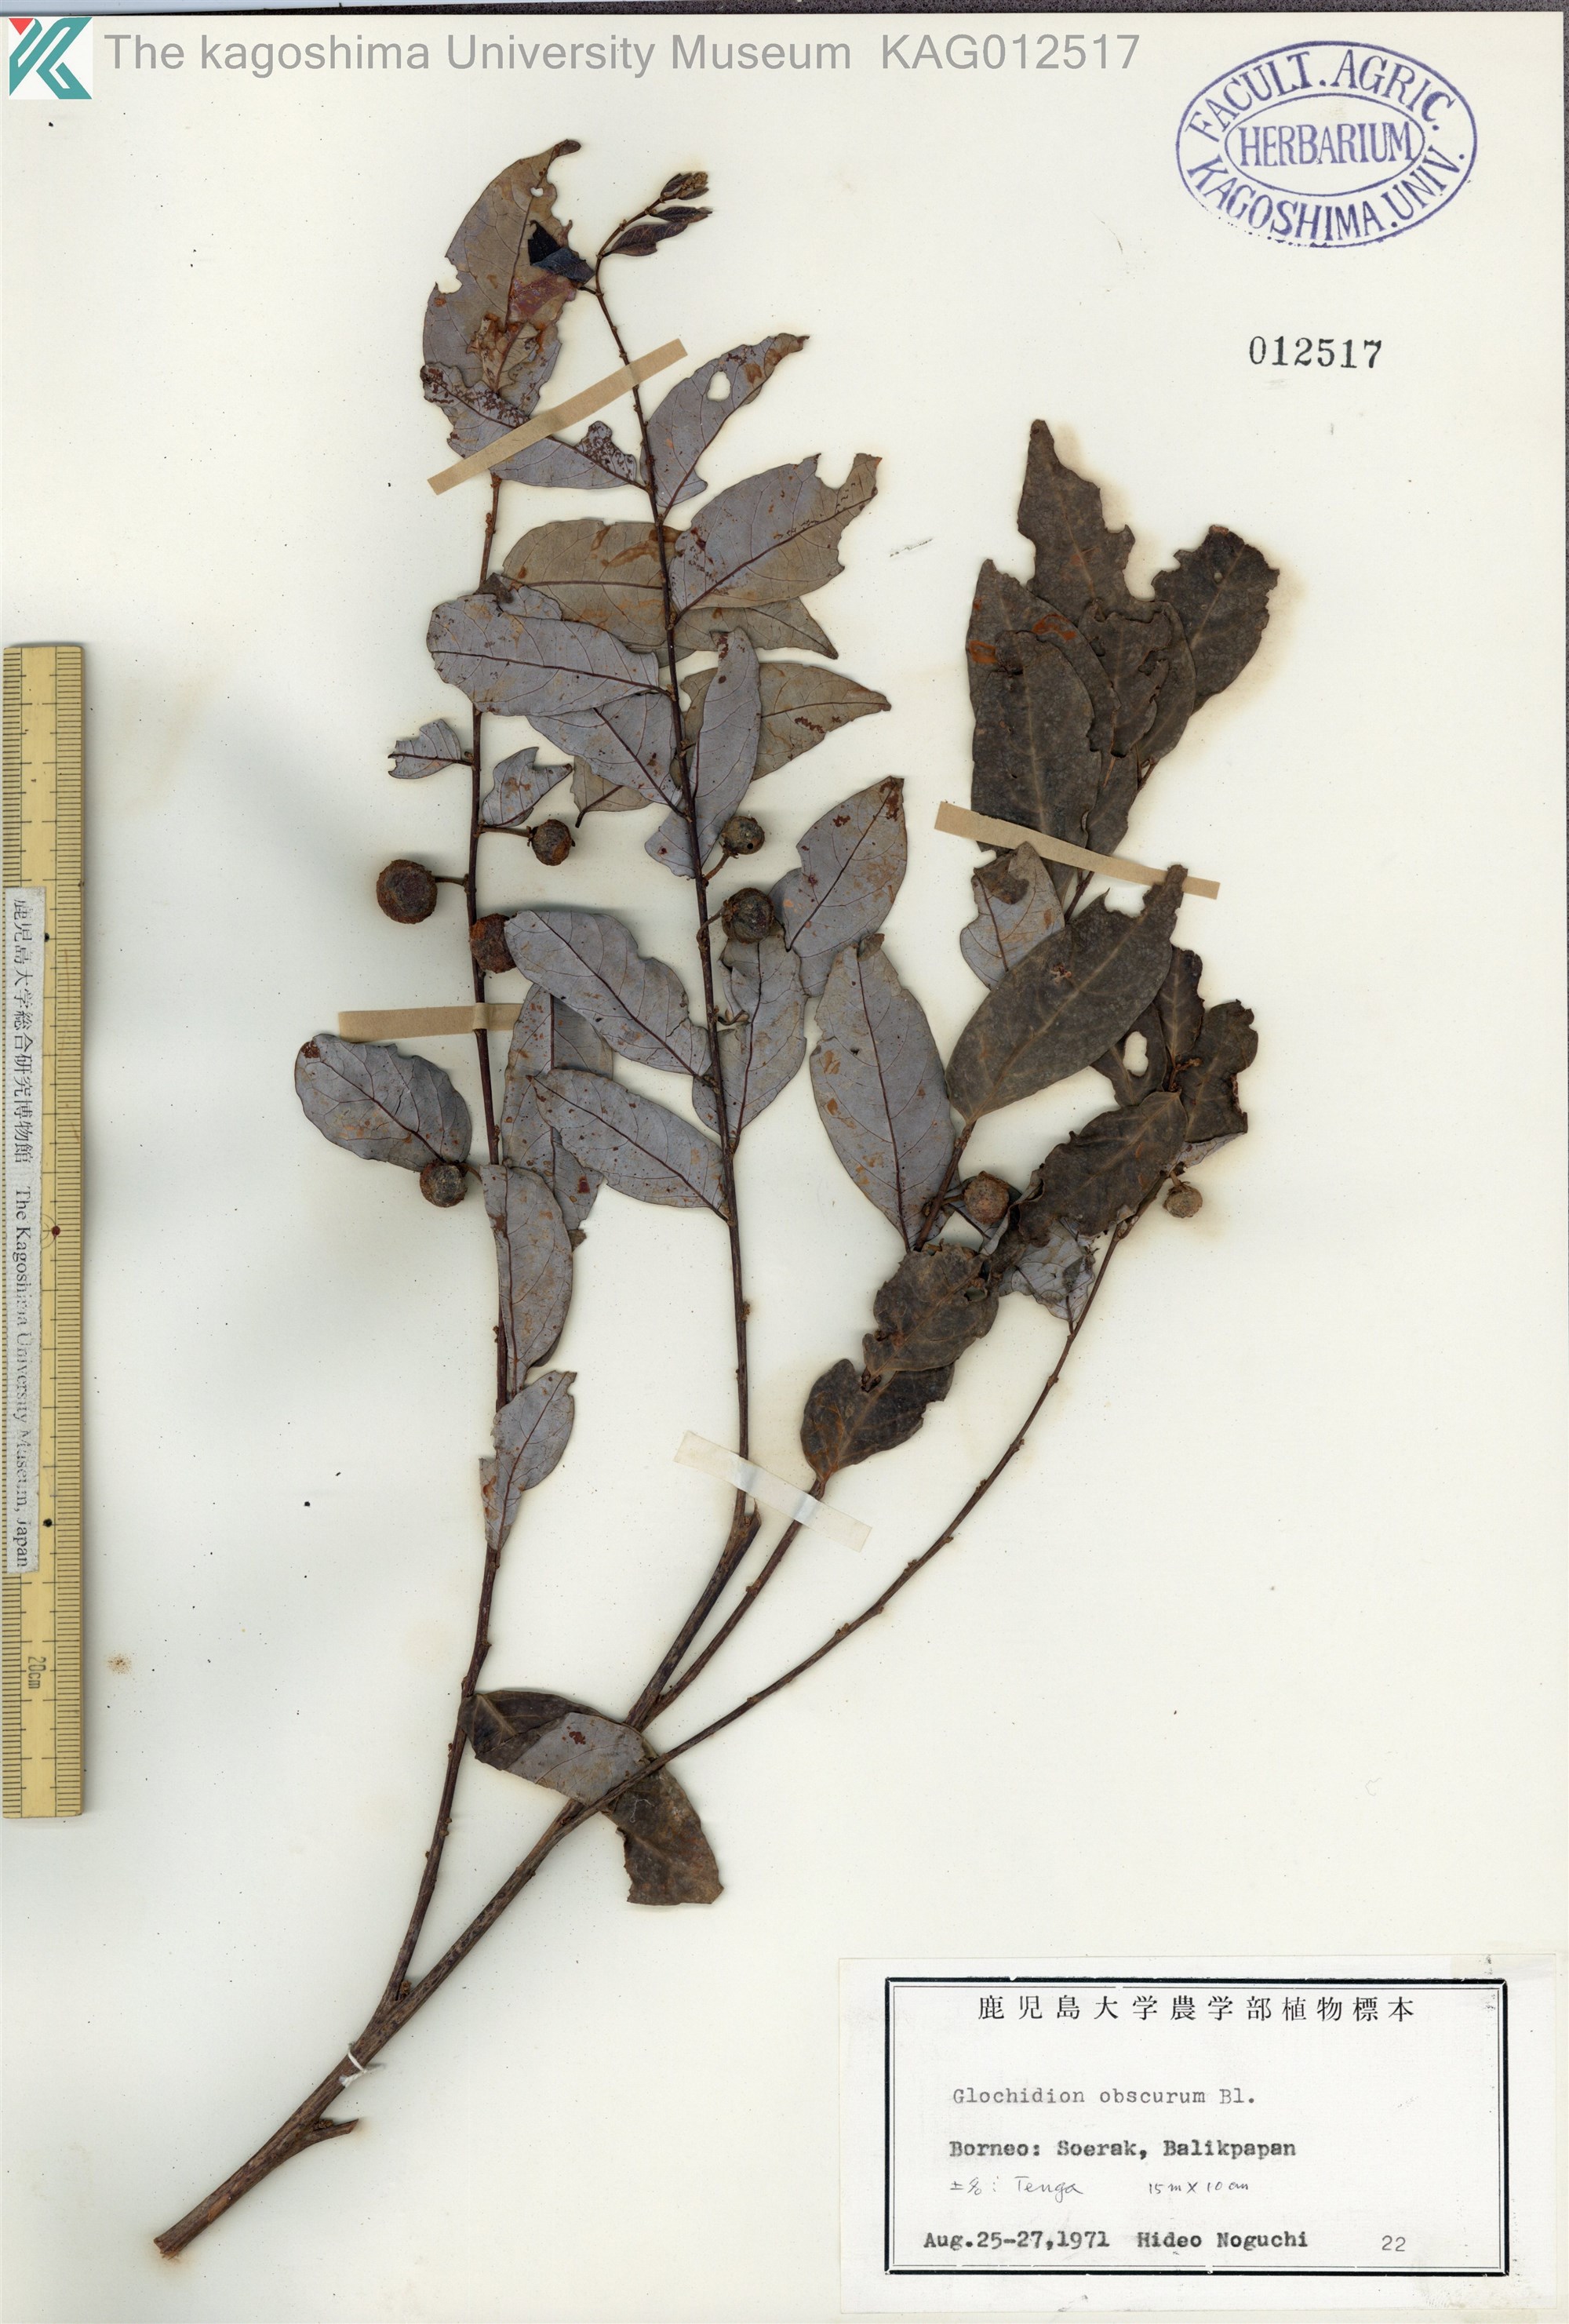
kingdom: Plantae
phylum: Tracheophyta
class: Magnoliopsida
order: Malpighiales
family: Phyllanthaceae
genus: Glochidion
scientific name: Glochidion obscurum
